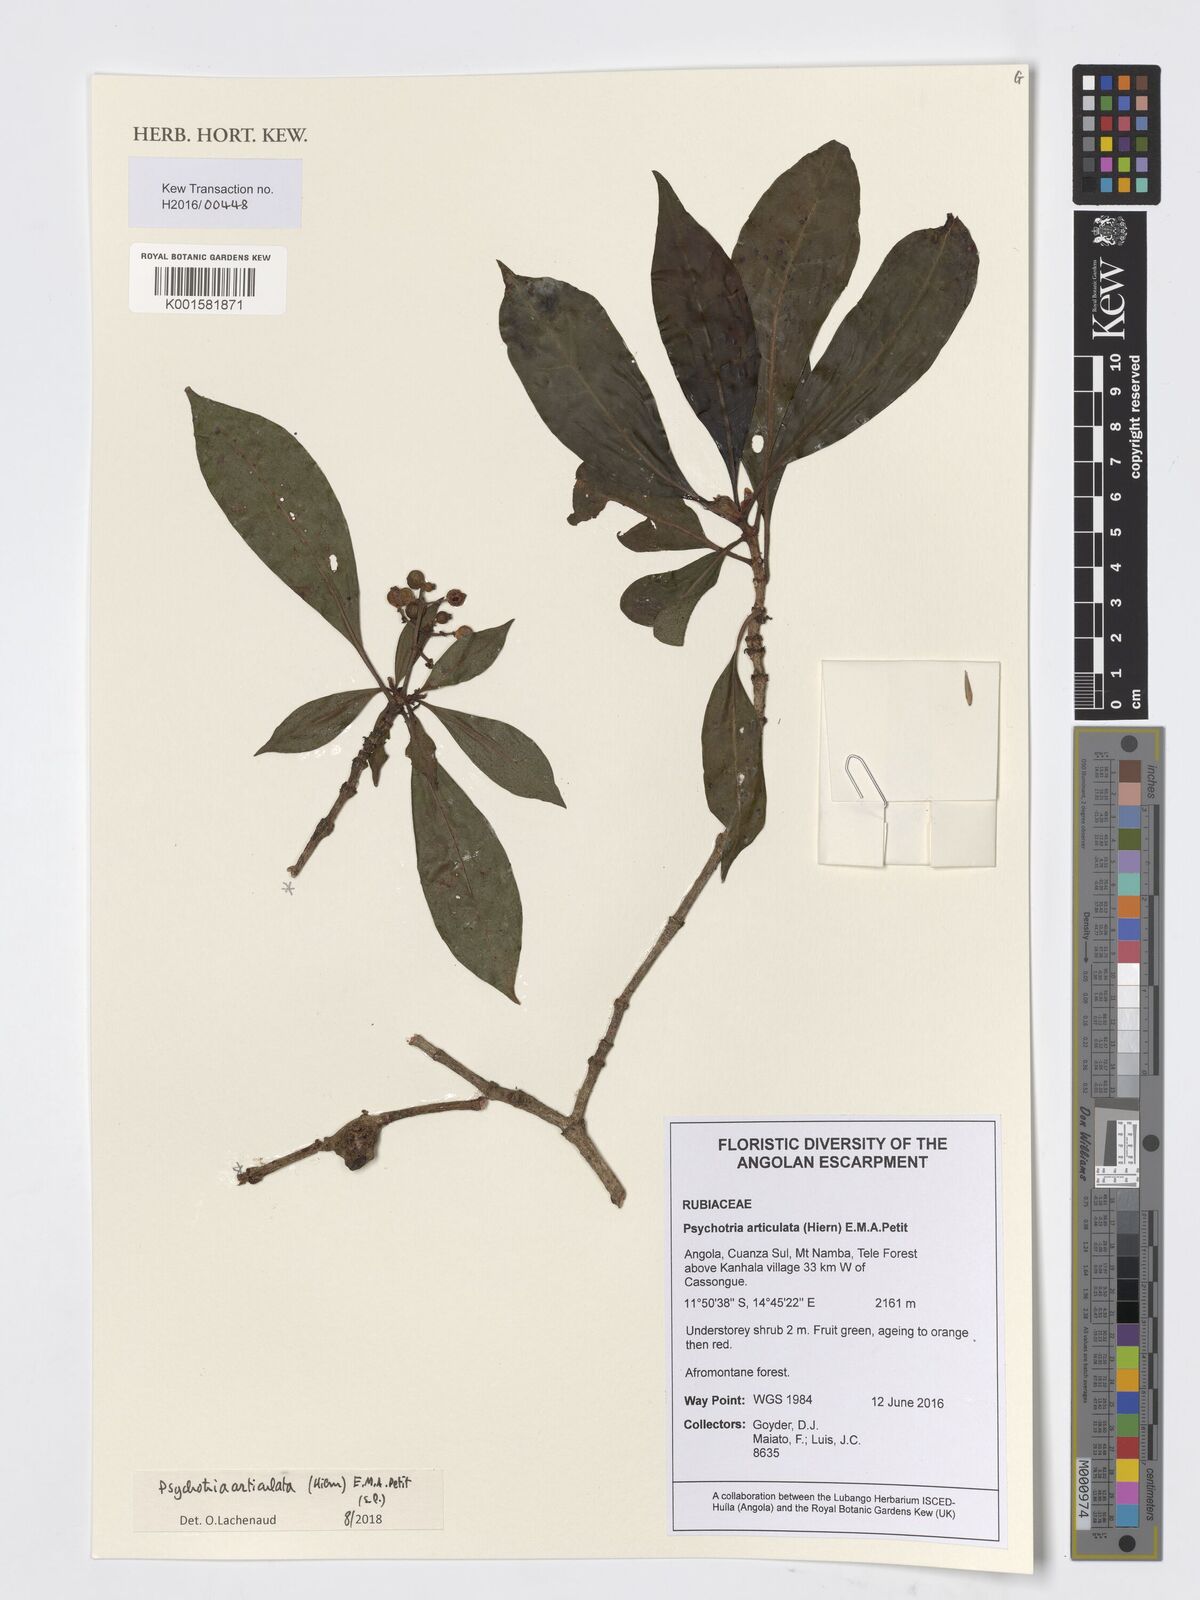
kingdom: Plantae
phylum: Tracheophyta
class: Magnoliopsida
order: Gentianales
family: Rubiaceae
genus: Psychotria
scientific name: Psychotria articulata
